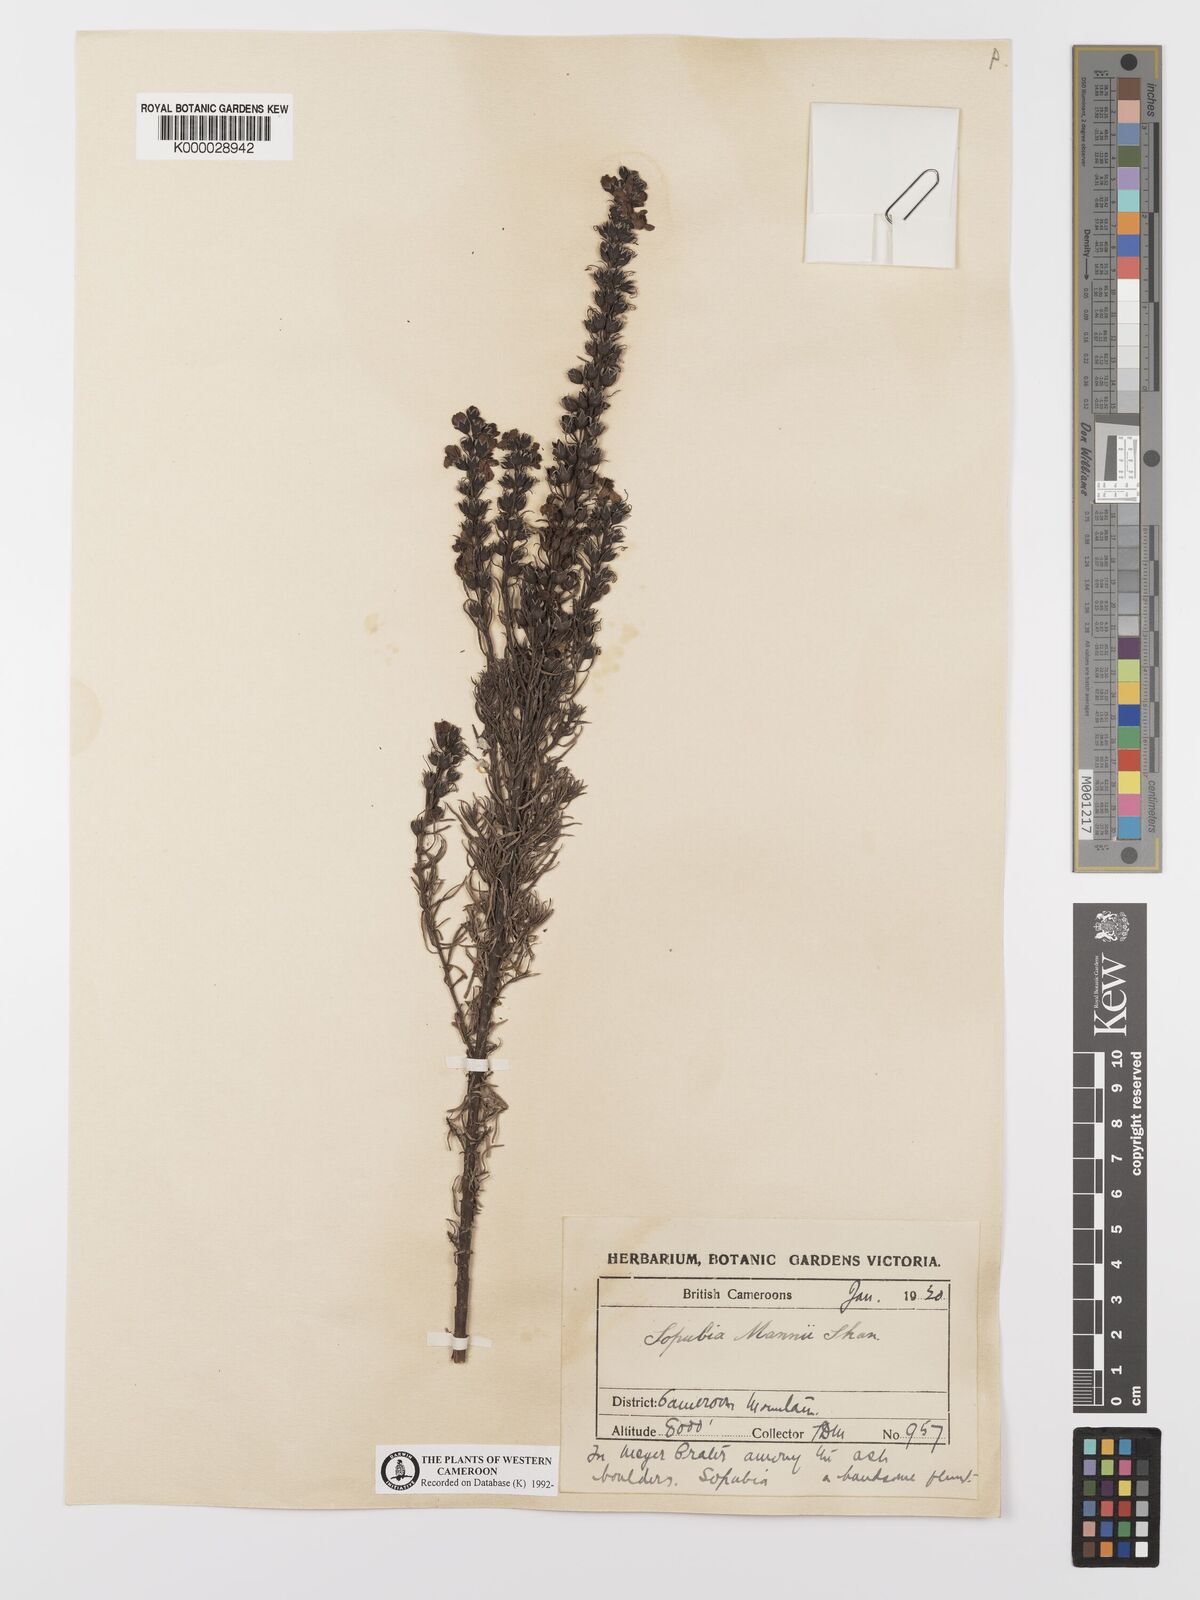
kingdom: Plantae
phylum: Tracheophyta
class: Magnoliopsida
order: Lamiales
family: Orobanchaceae
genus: Sopubia
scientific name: Sopubia mannii
